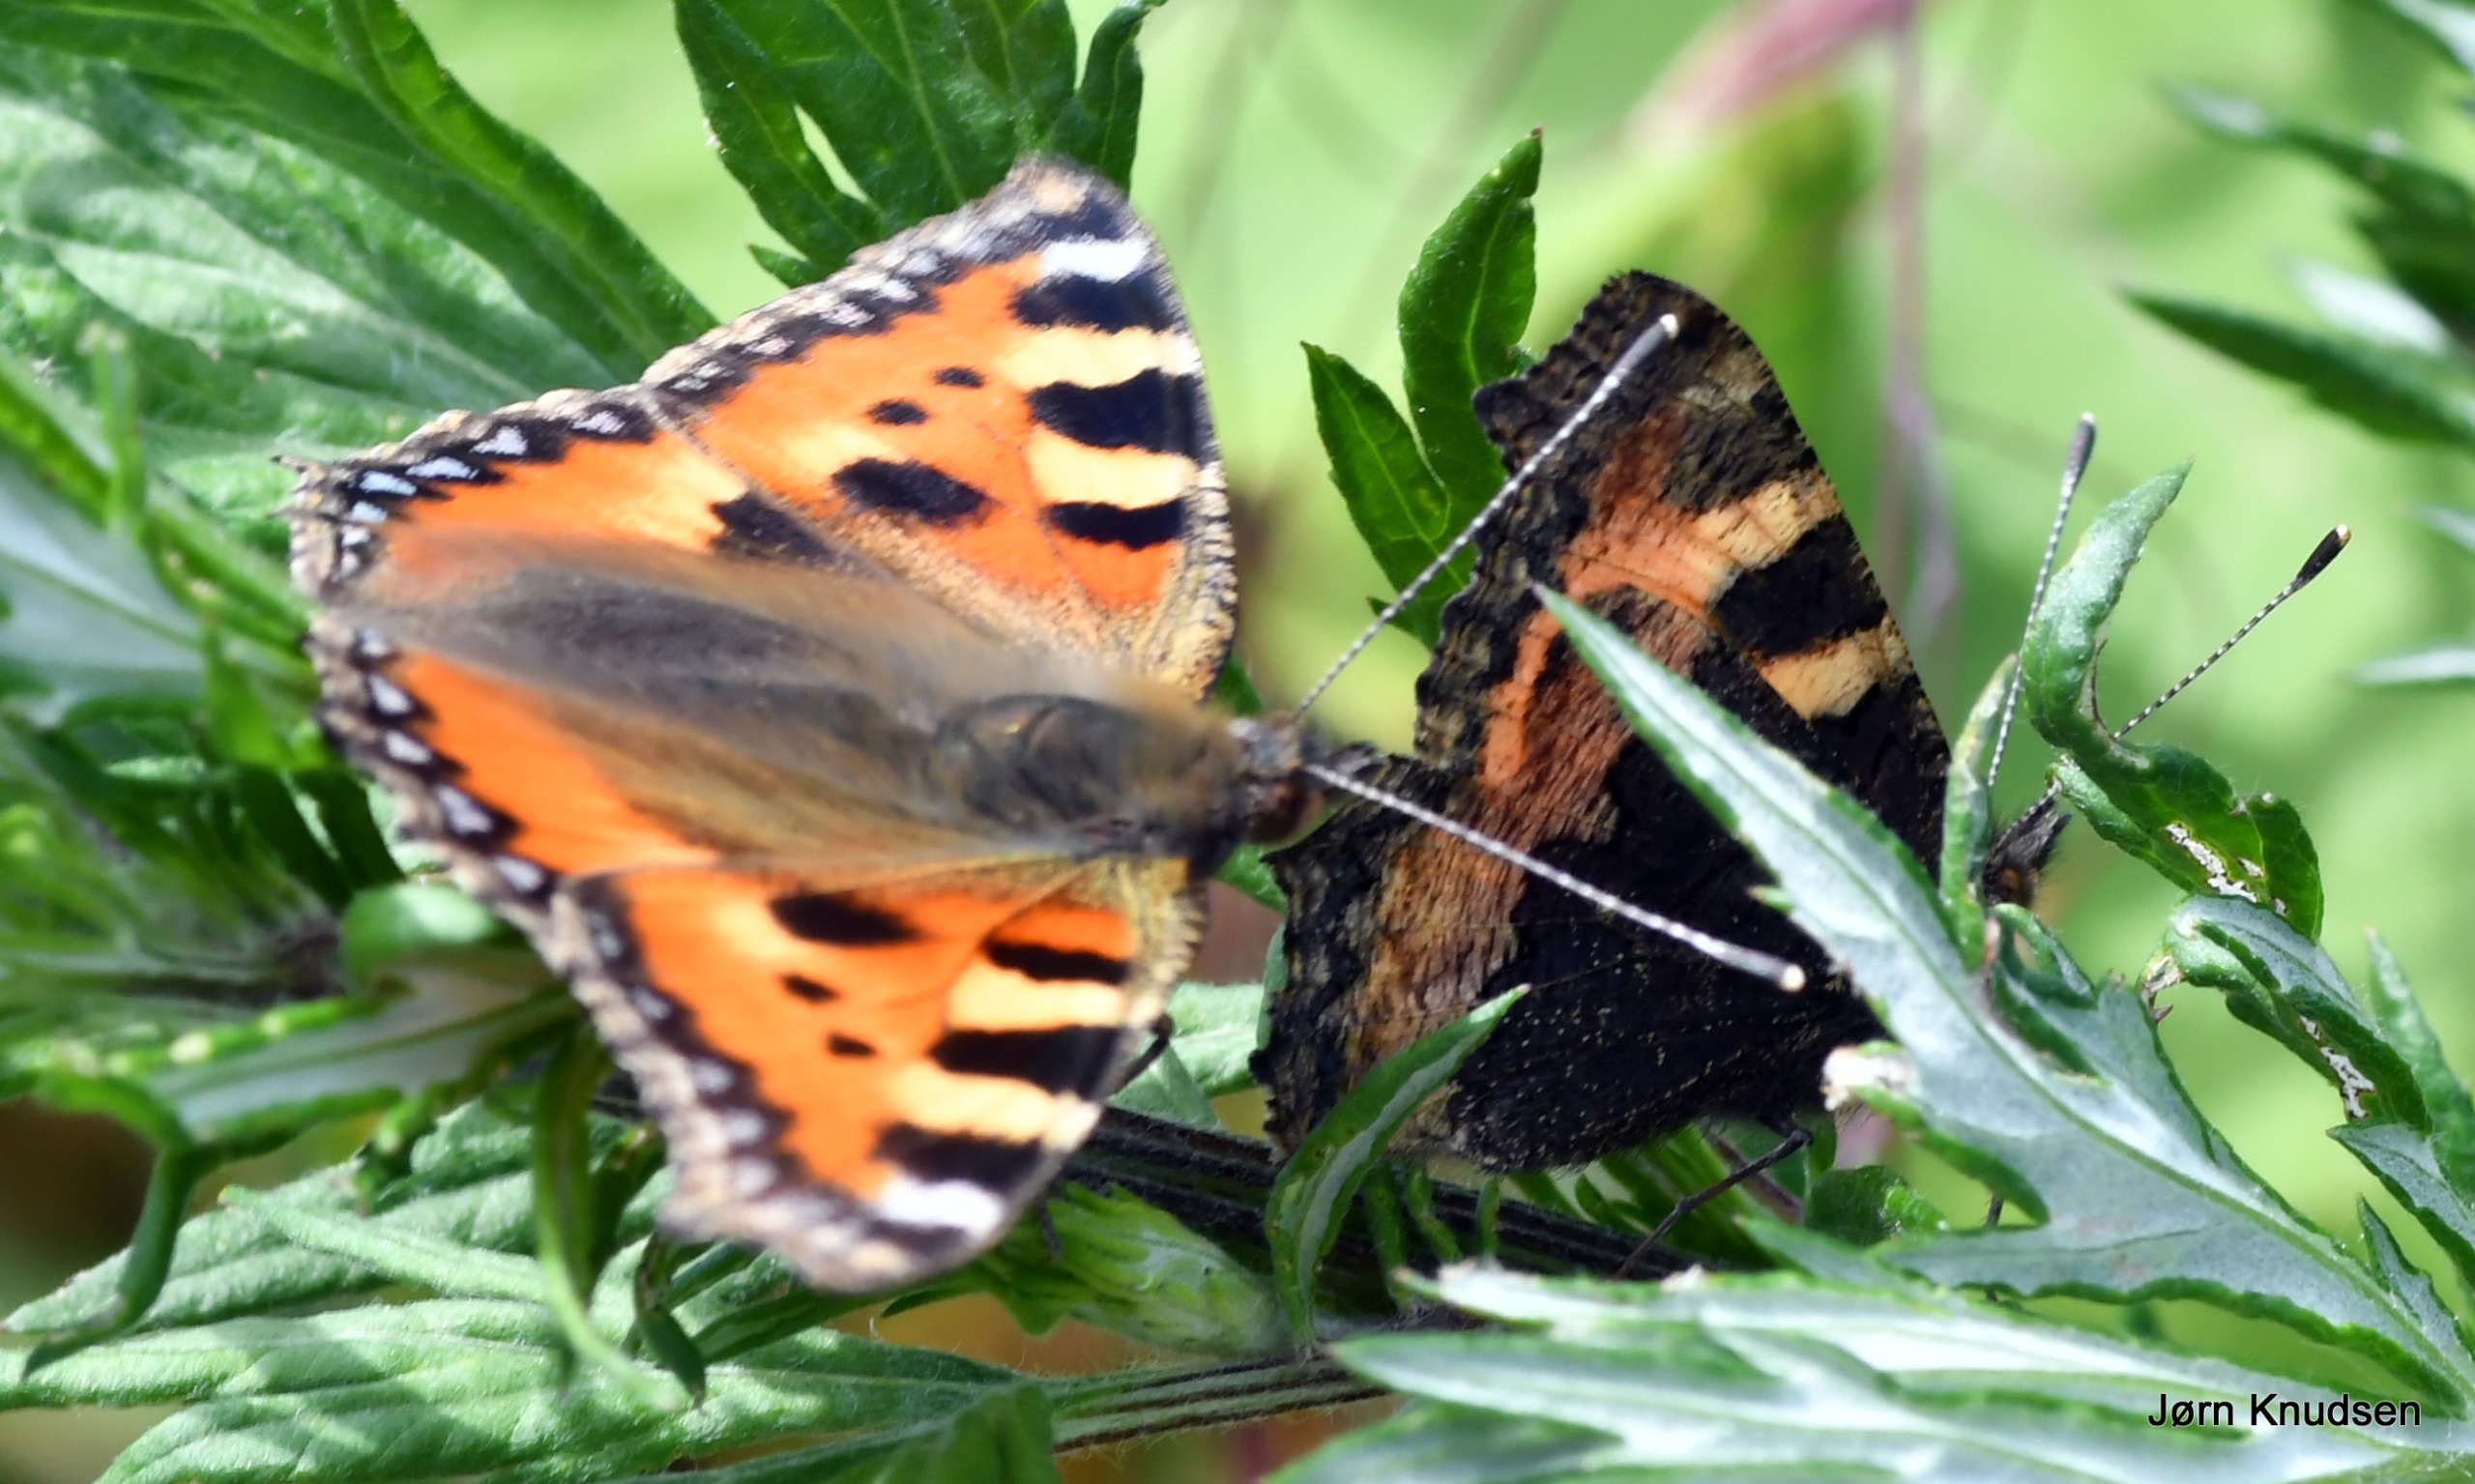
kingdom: Animalia
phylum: Arthropoda
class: Insecta
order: Lepidoptera
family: Nymphalidae
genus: Aglais
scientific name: Aglais urticae
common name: Nældens takvinge
